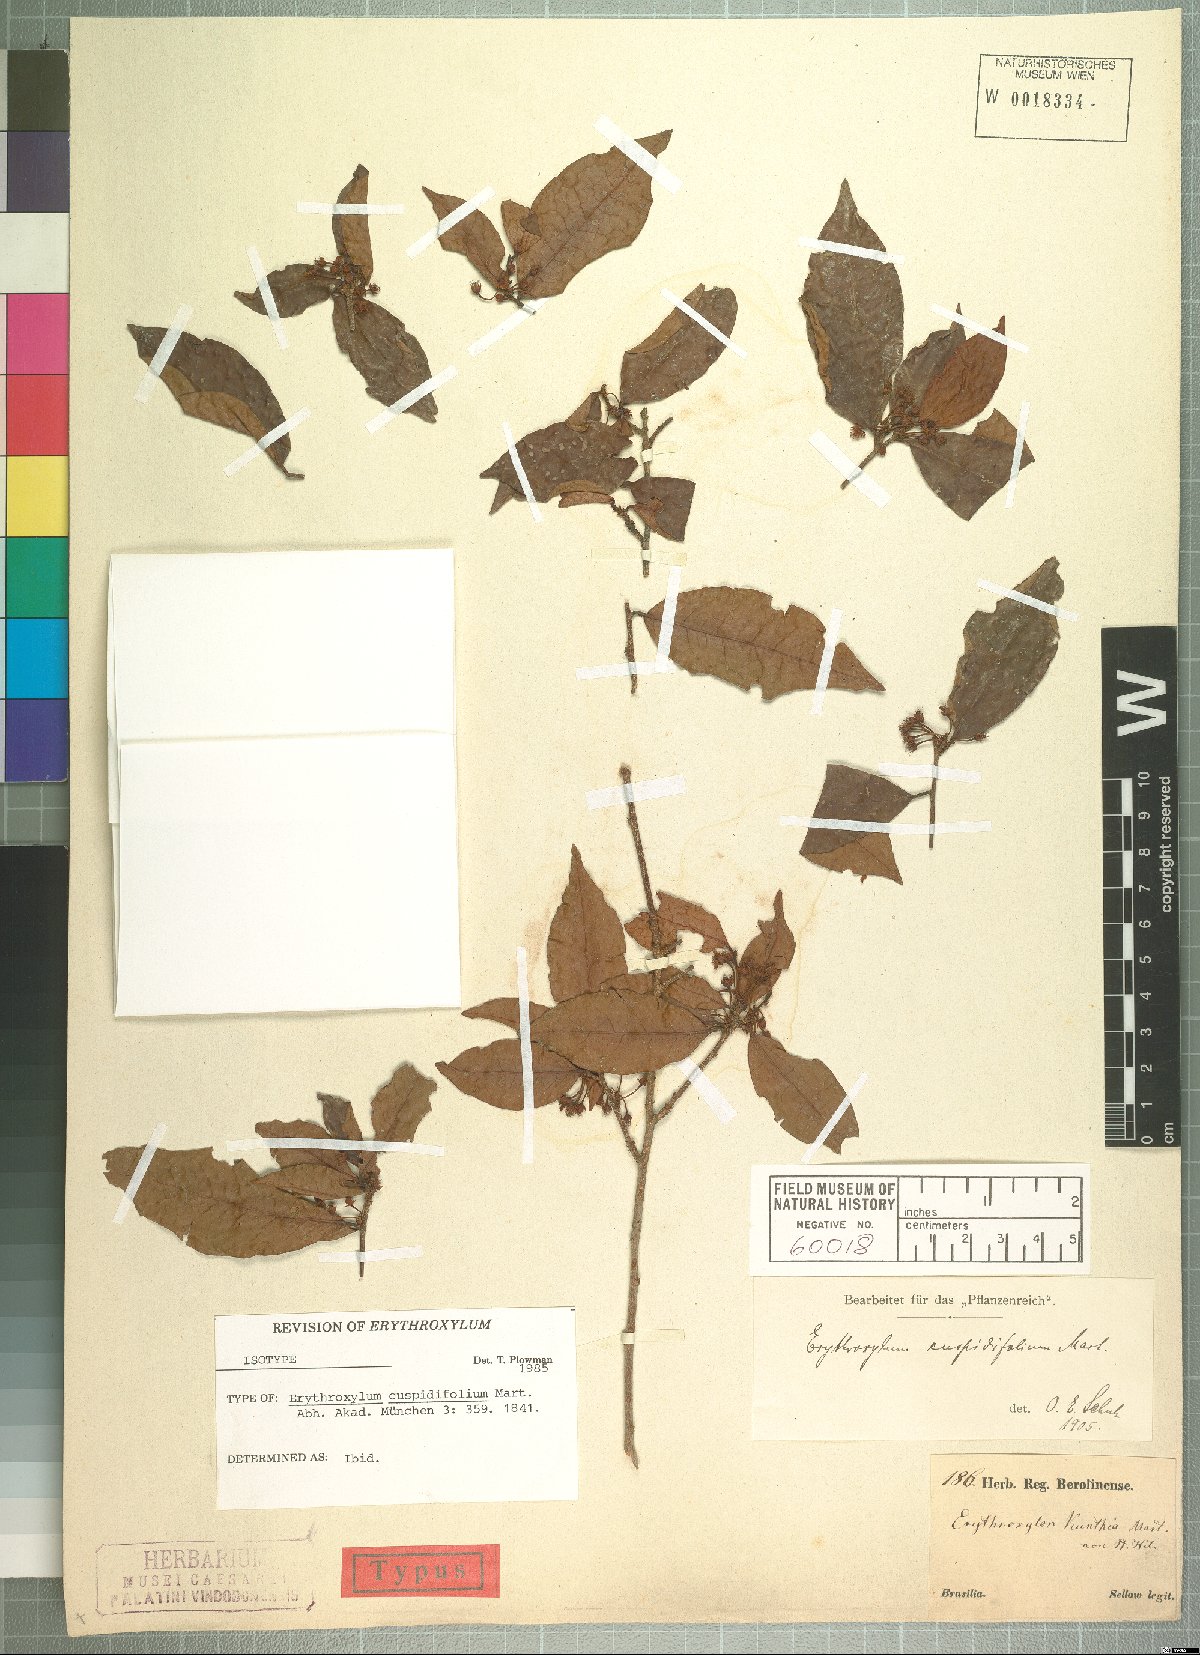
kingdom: Plantae
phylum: Tracheophyta
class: Magnoliopsida
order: Malpighiales
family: Erythroxylaceae
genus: Erythroxylum
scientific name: Erythroxylum cuspidifolium
